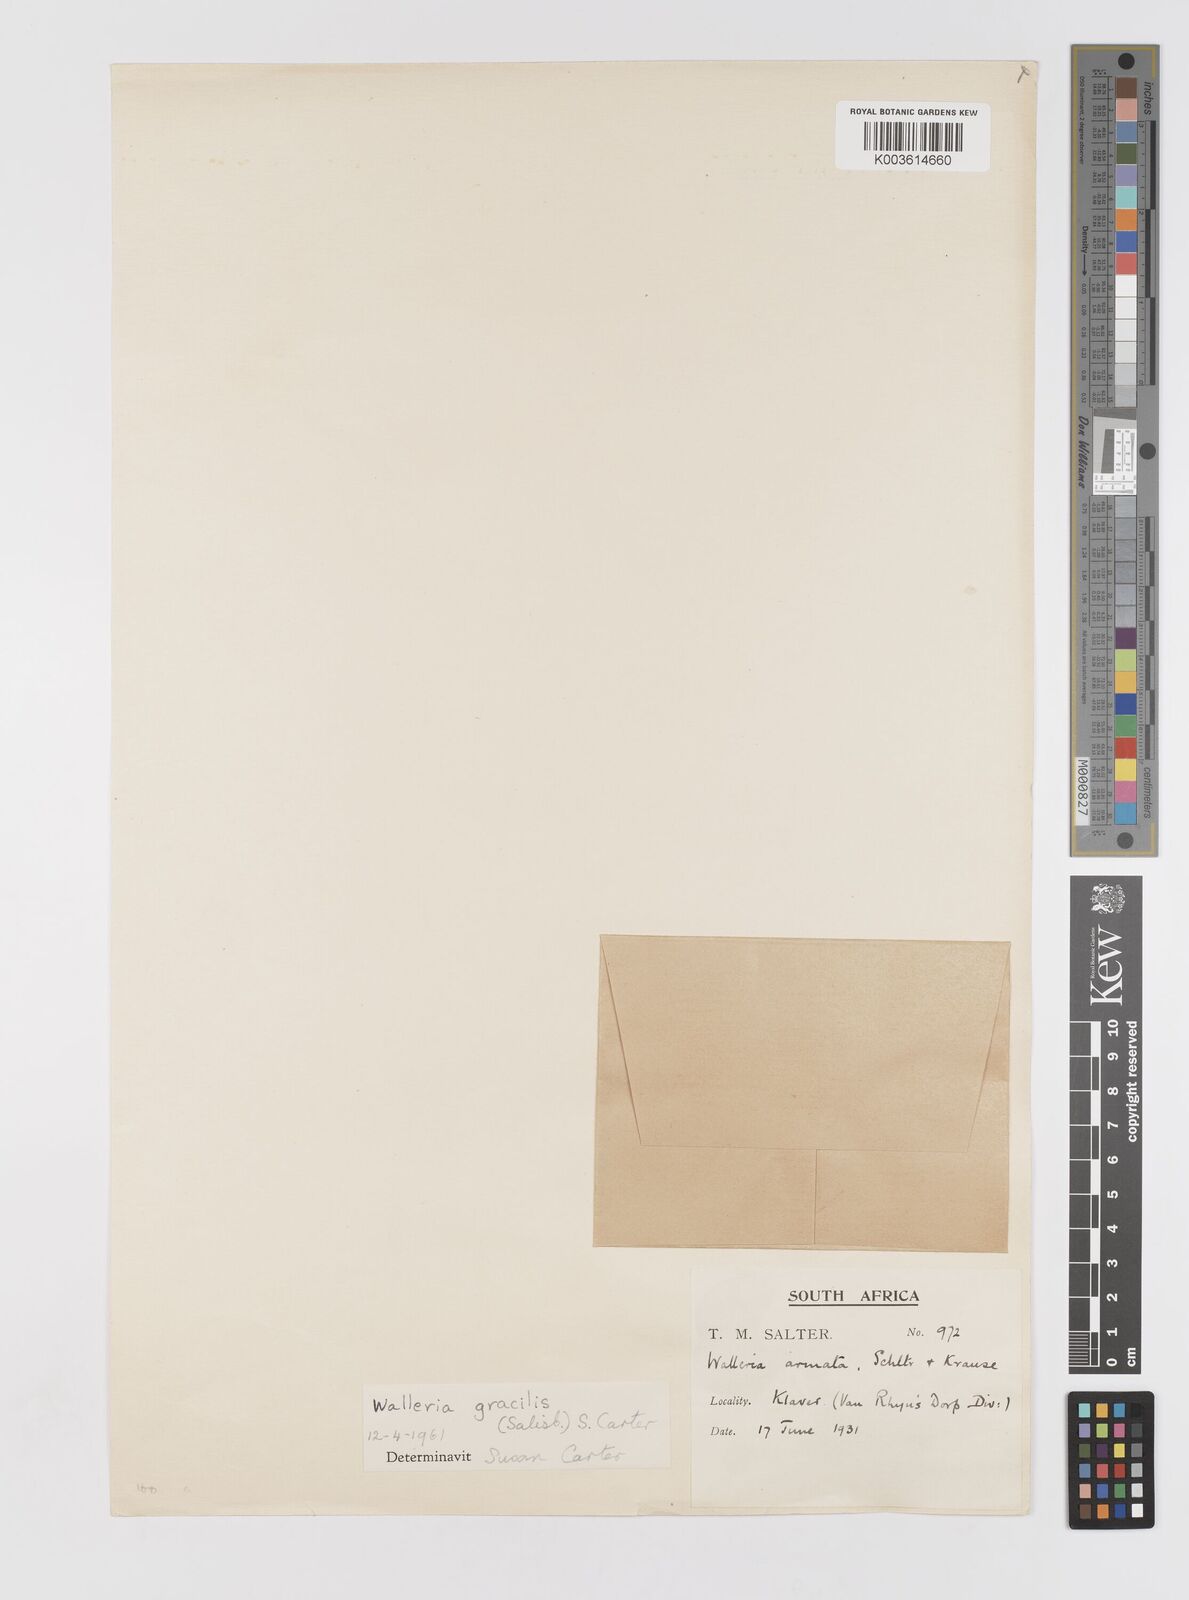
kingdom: Plantae
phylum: Tracheophyta
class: Liliopsida
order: Asparagales
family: Tecophilaeaceae
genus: Walleria
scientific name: Walleria gracilis
